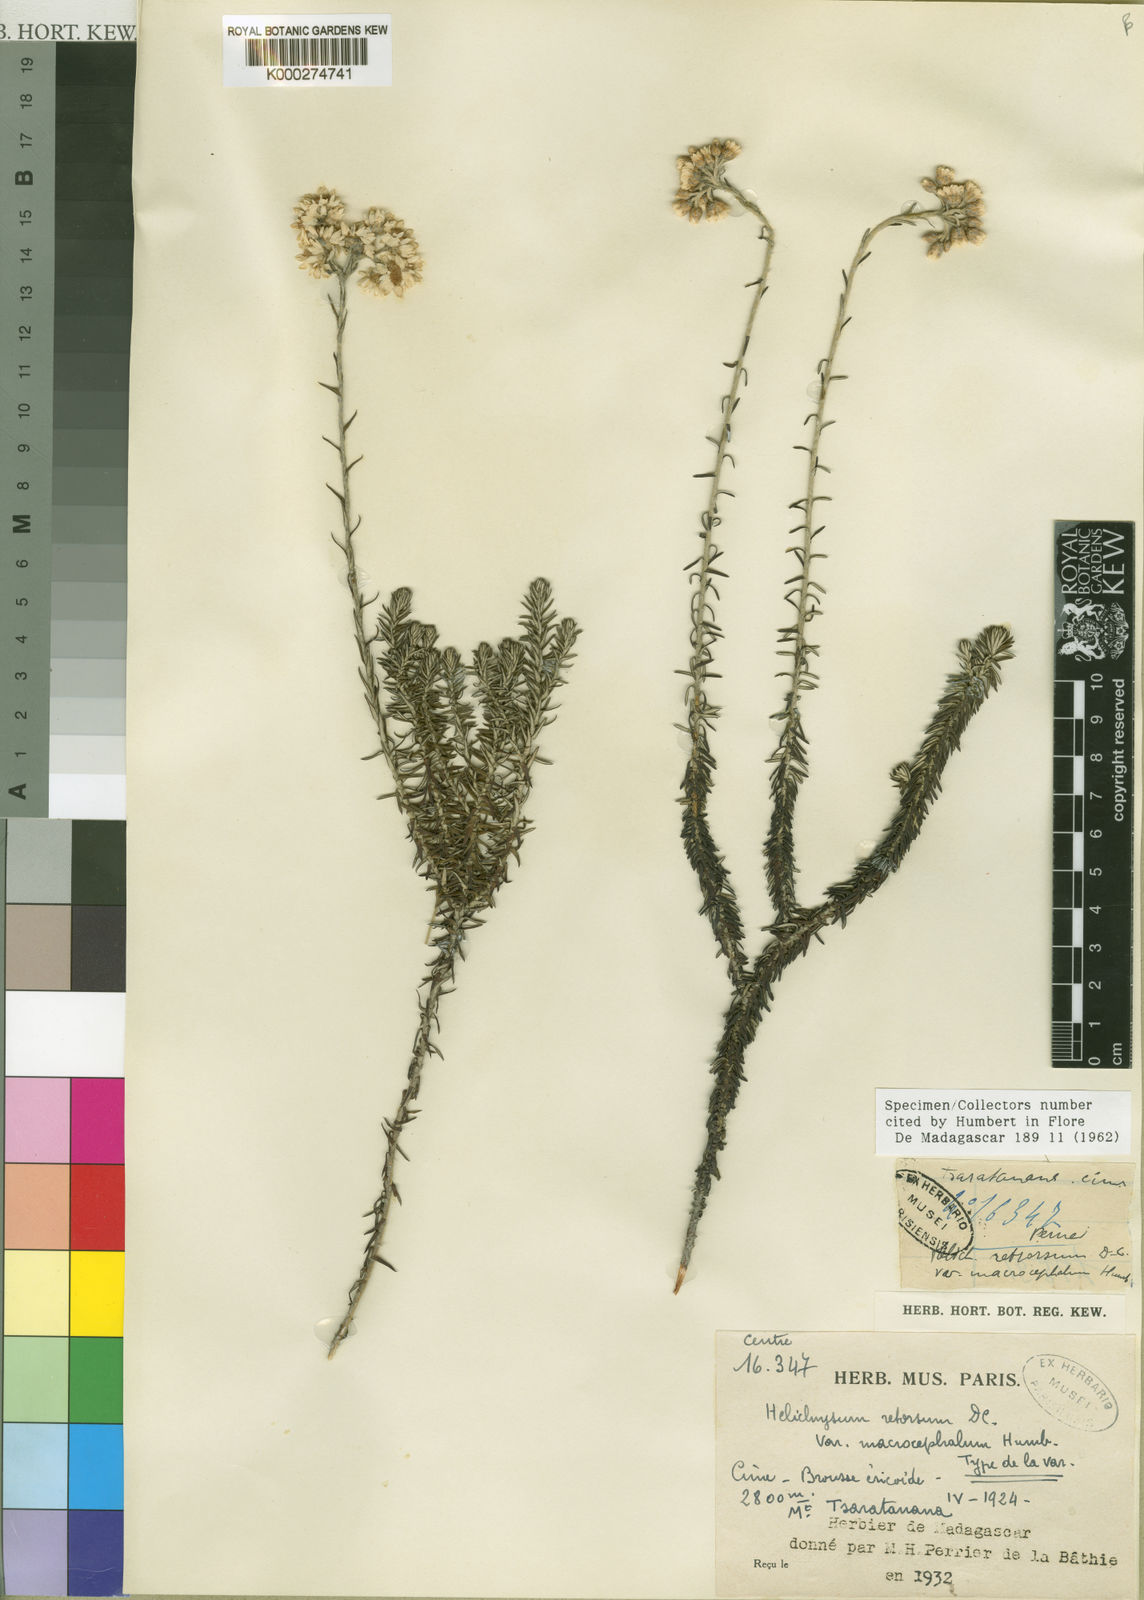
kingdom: Plantae
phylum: Tracheophyta
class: Magnoliopsida
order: Asterales
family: Asteraceae
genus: Helichrysum
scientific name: Helichrysum retrorsum
